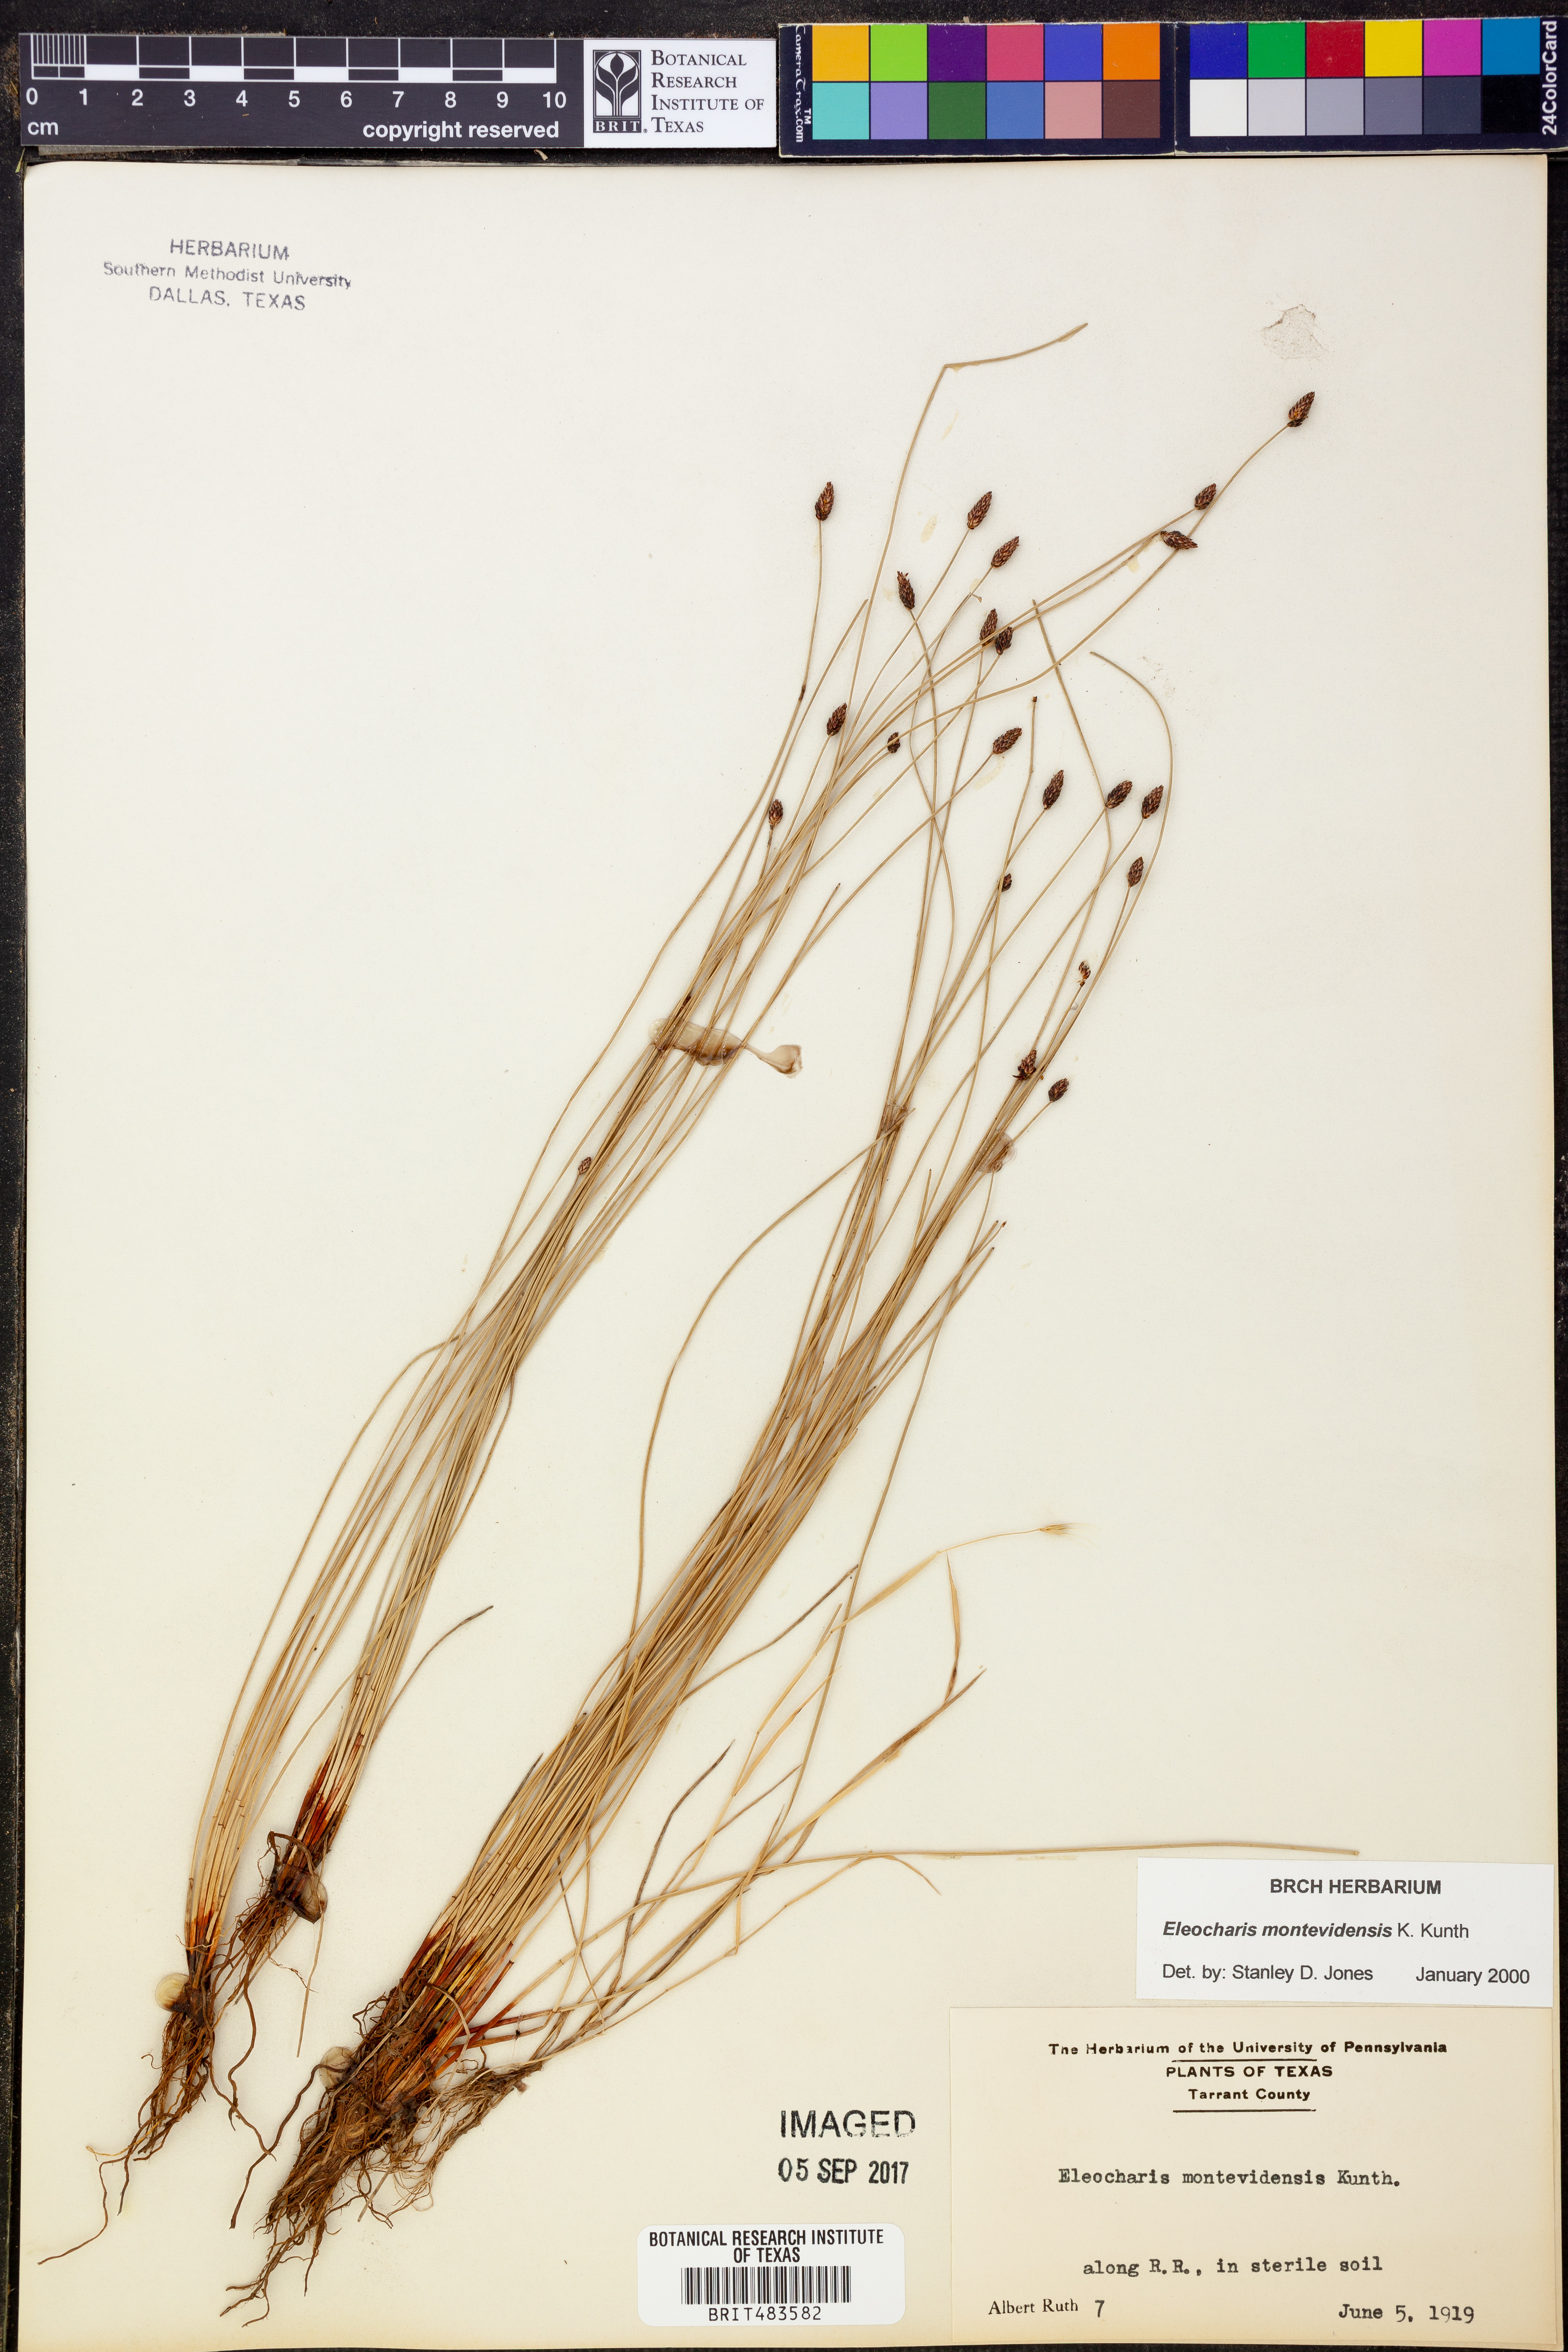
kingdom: Plantae
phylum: Tracheophyta
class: Liliopsida
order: Poales
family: Cyperaceae
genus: Eleocharis
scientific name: Eleocharis montevidensis
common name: Sand spike-rush
